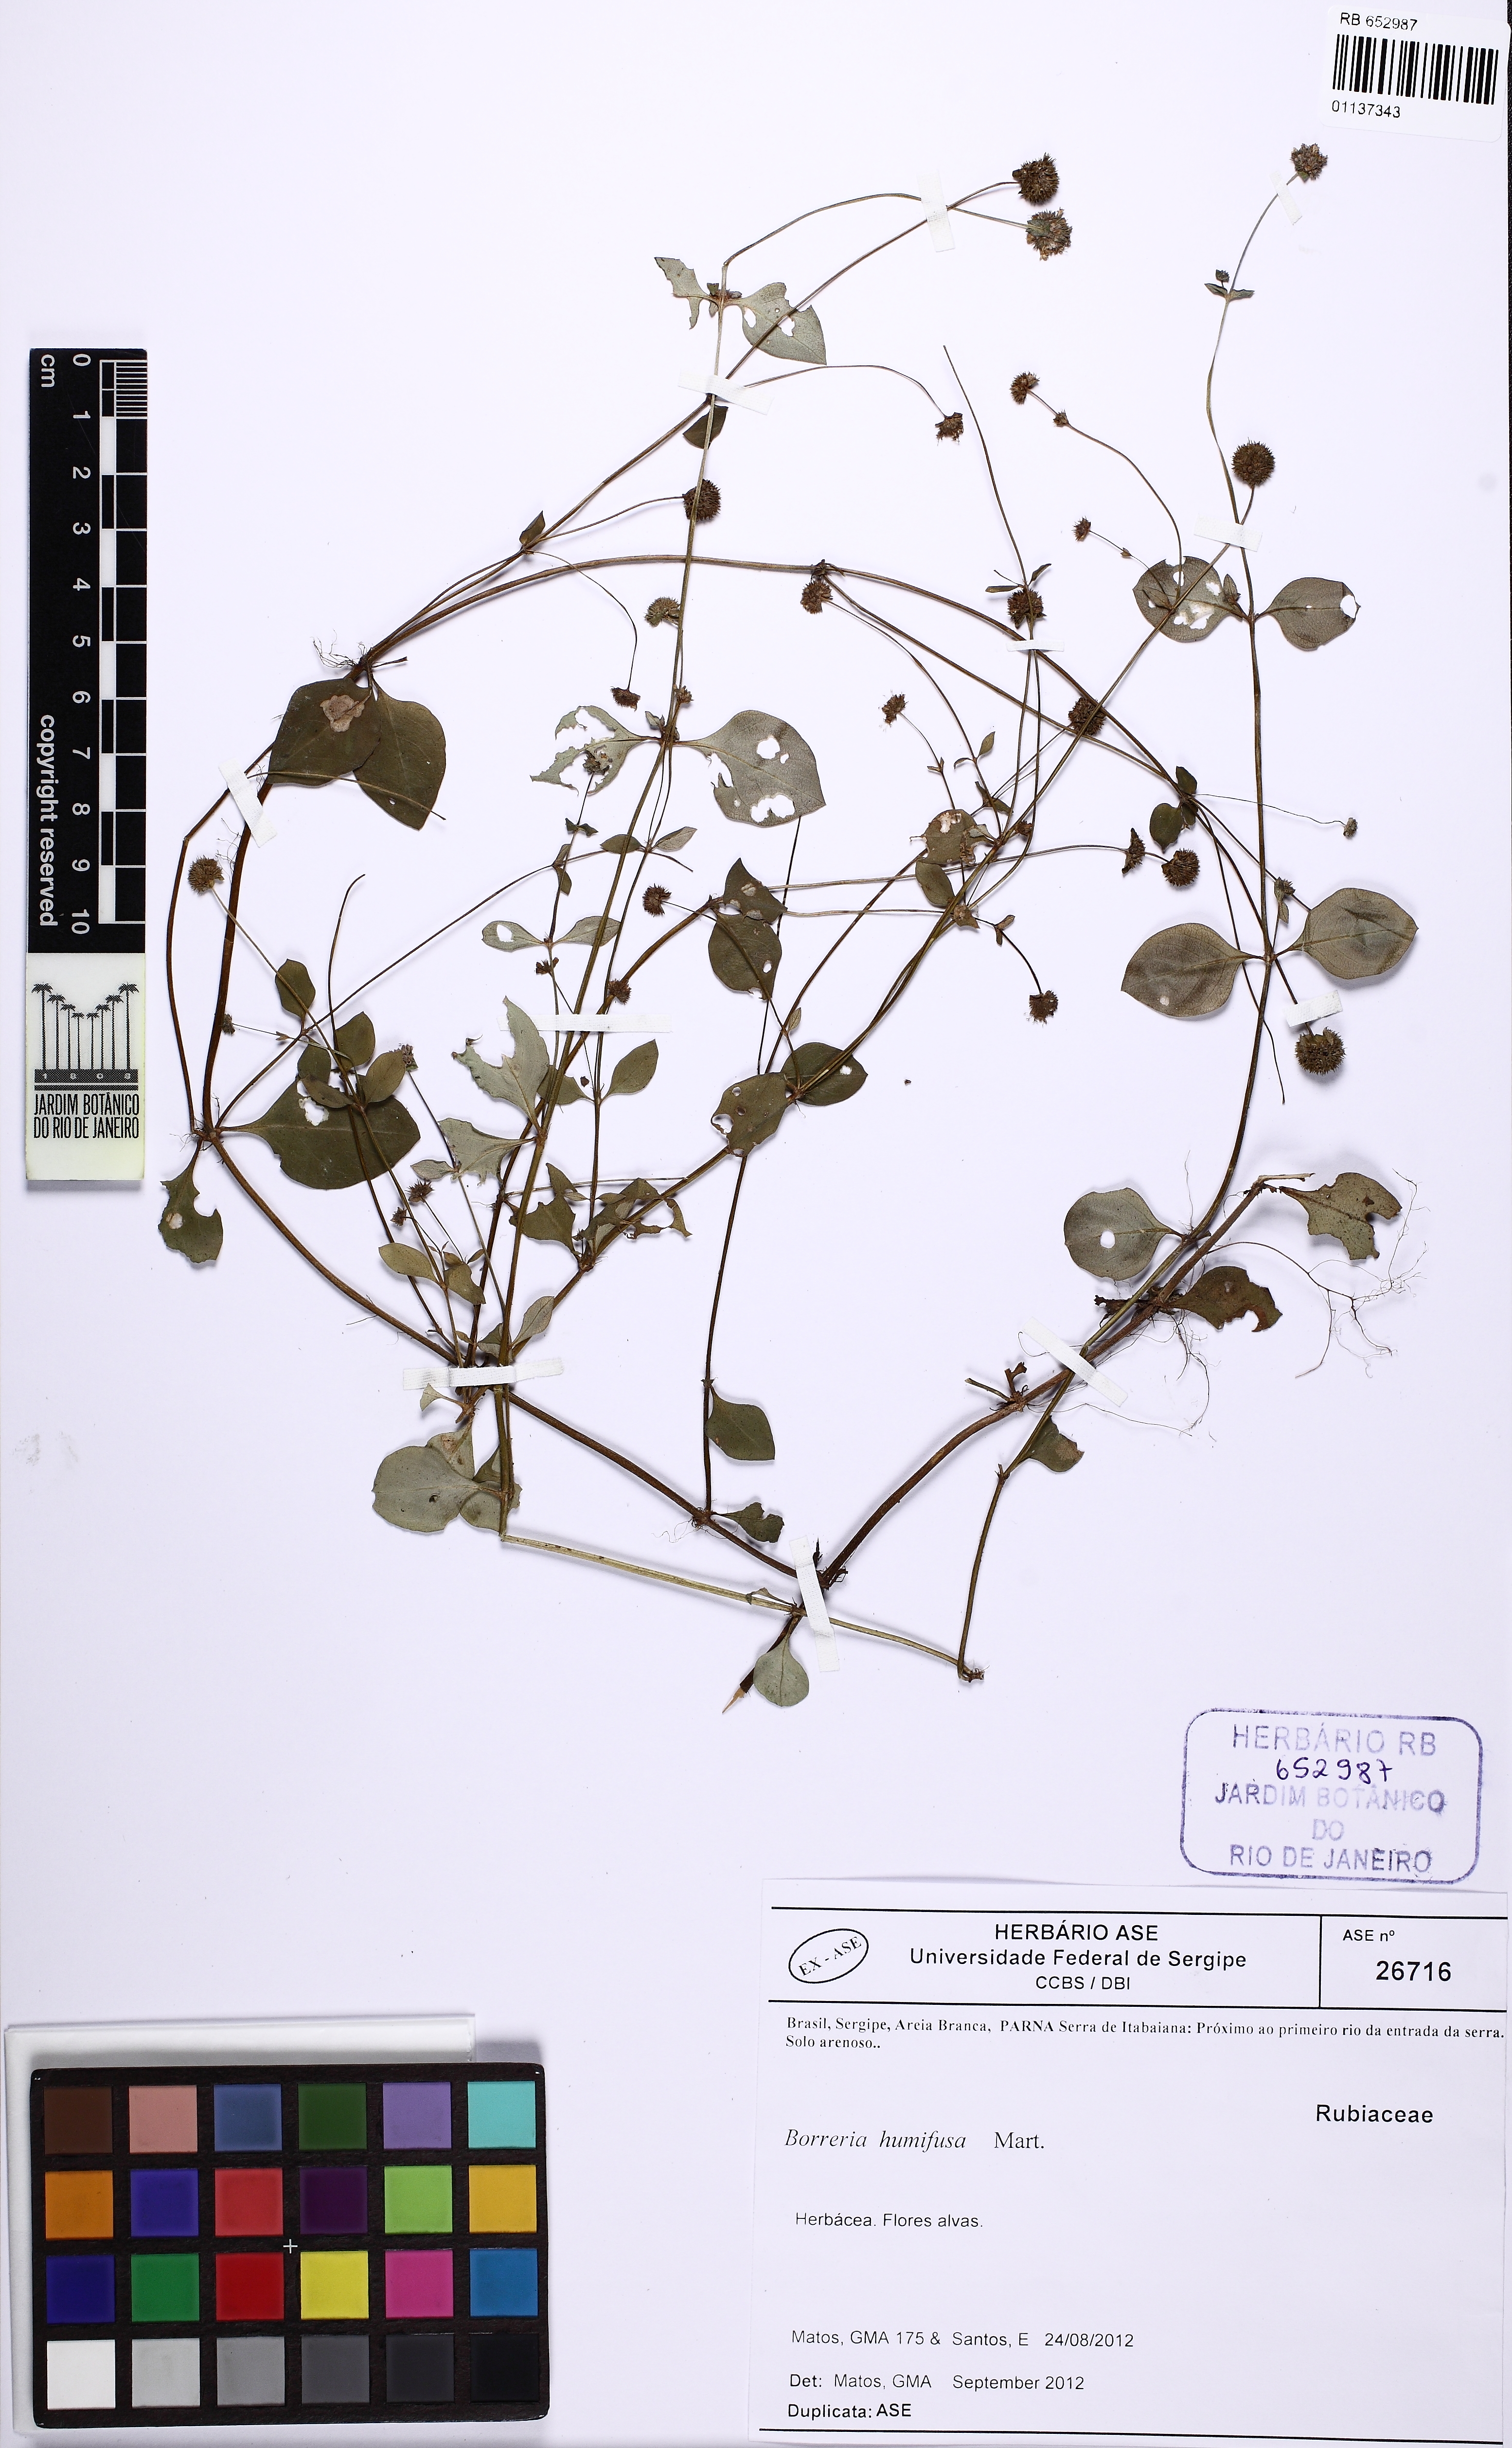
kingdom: Plantae
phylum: Tracheophyta
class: Magnoliopsida
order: Gentianales
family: Rubiaceae
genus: Spermacoce
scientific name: Spermacoce scabiosoides
